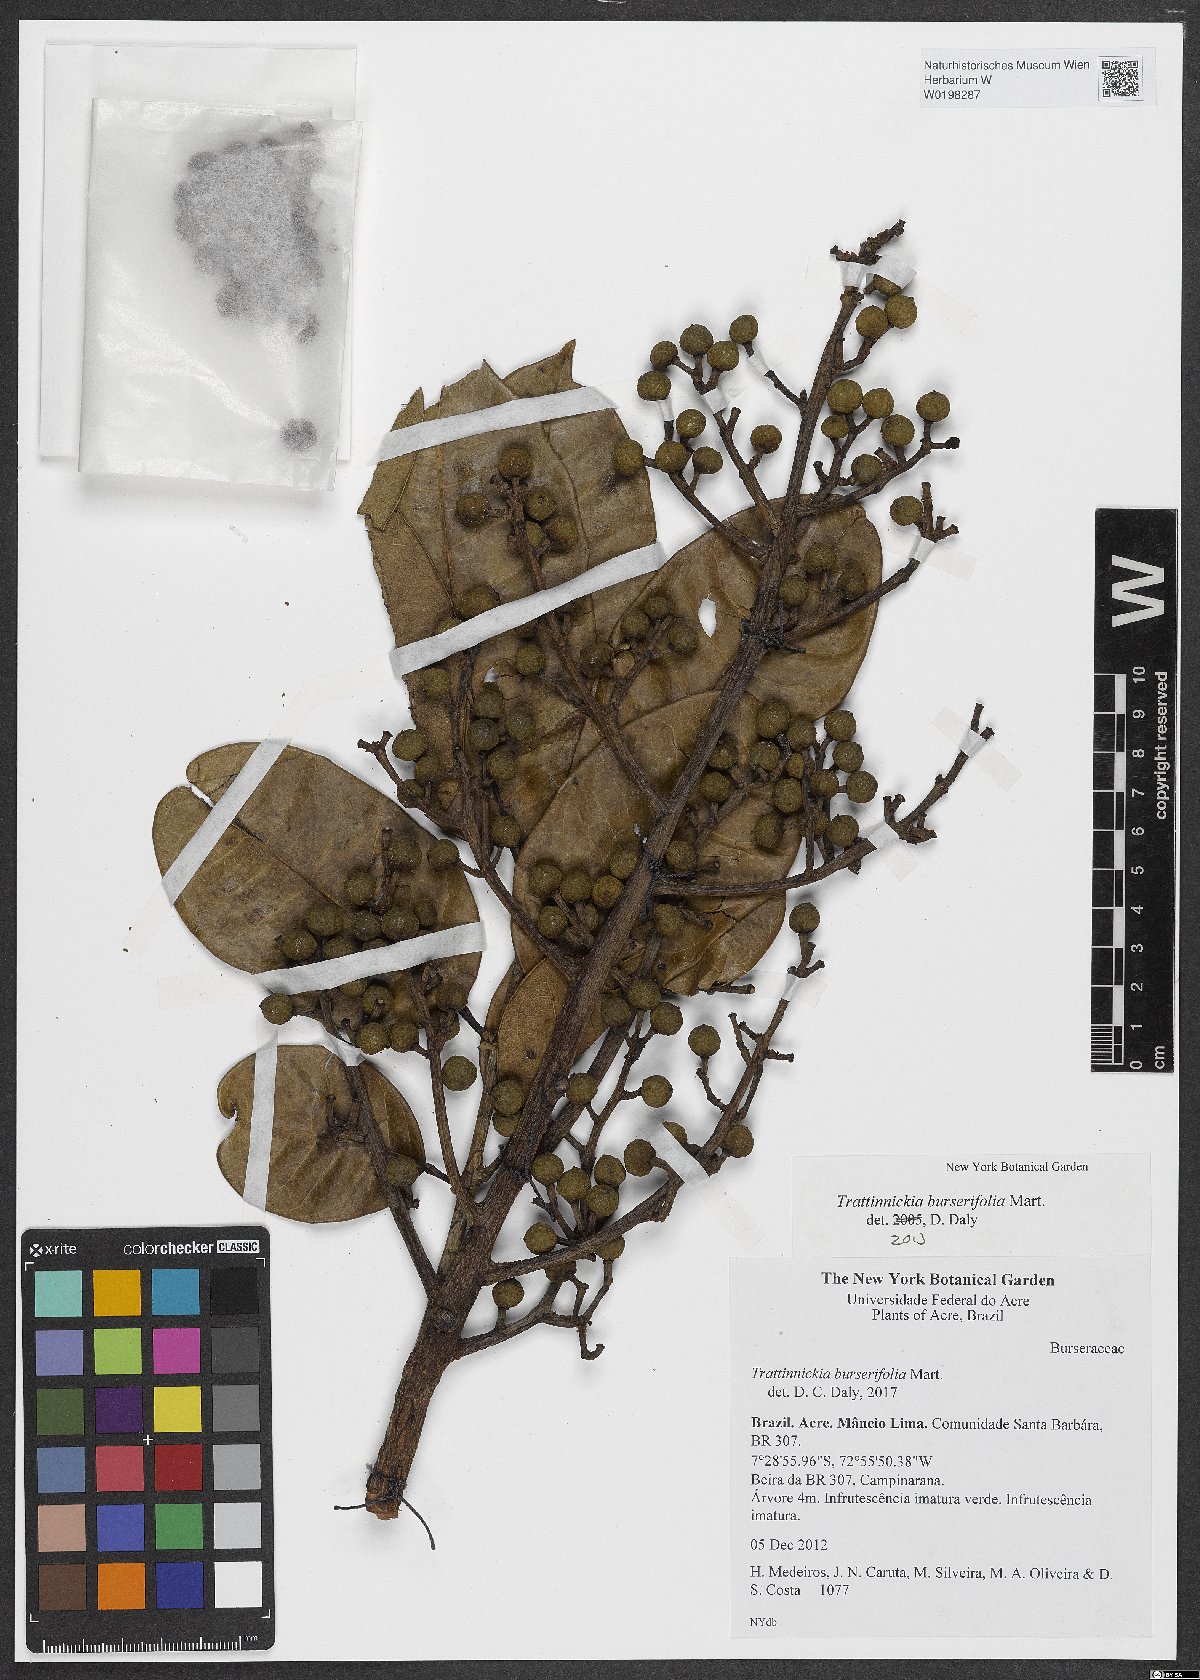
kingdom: Plantae
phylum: Tracheophyta
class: Magnoliopsida
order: Sapindales
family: Burseraceae
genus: Trattinnickia
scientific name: Trattinnickia burserifolia
